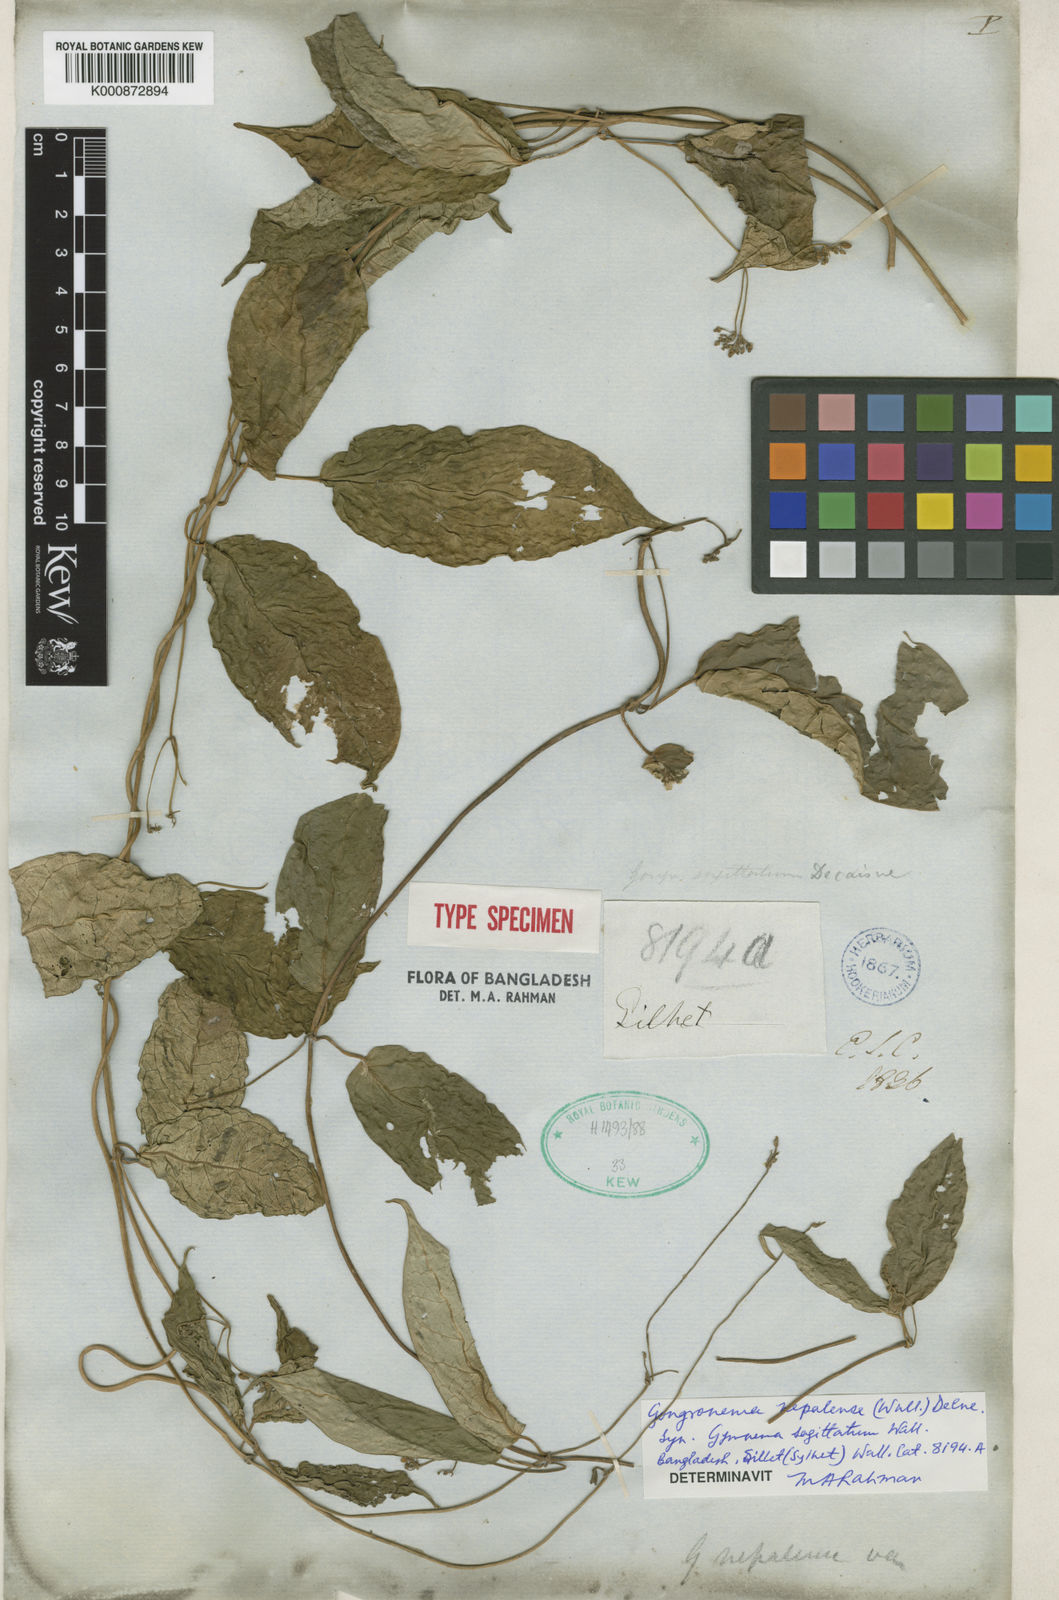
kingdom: Plantae
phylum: Tracheophyta
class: Magnoliopsida
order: Gentianales
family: Apocynaceae
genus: Gongronema
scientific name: Gongronema
